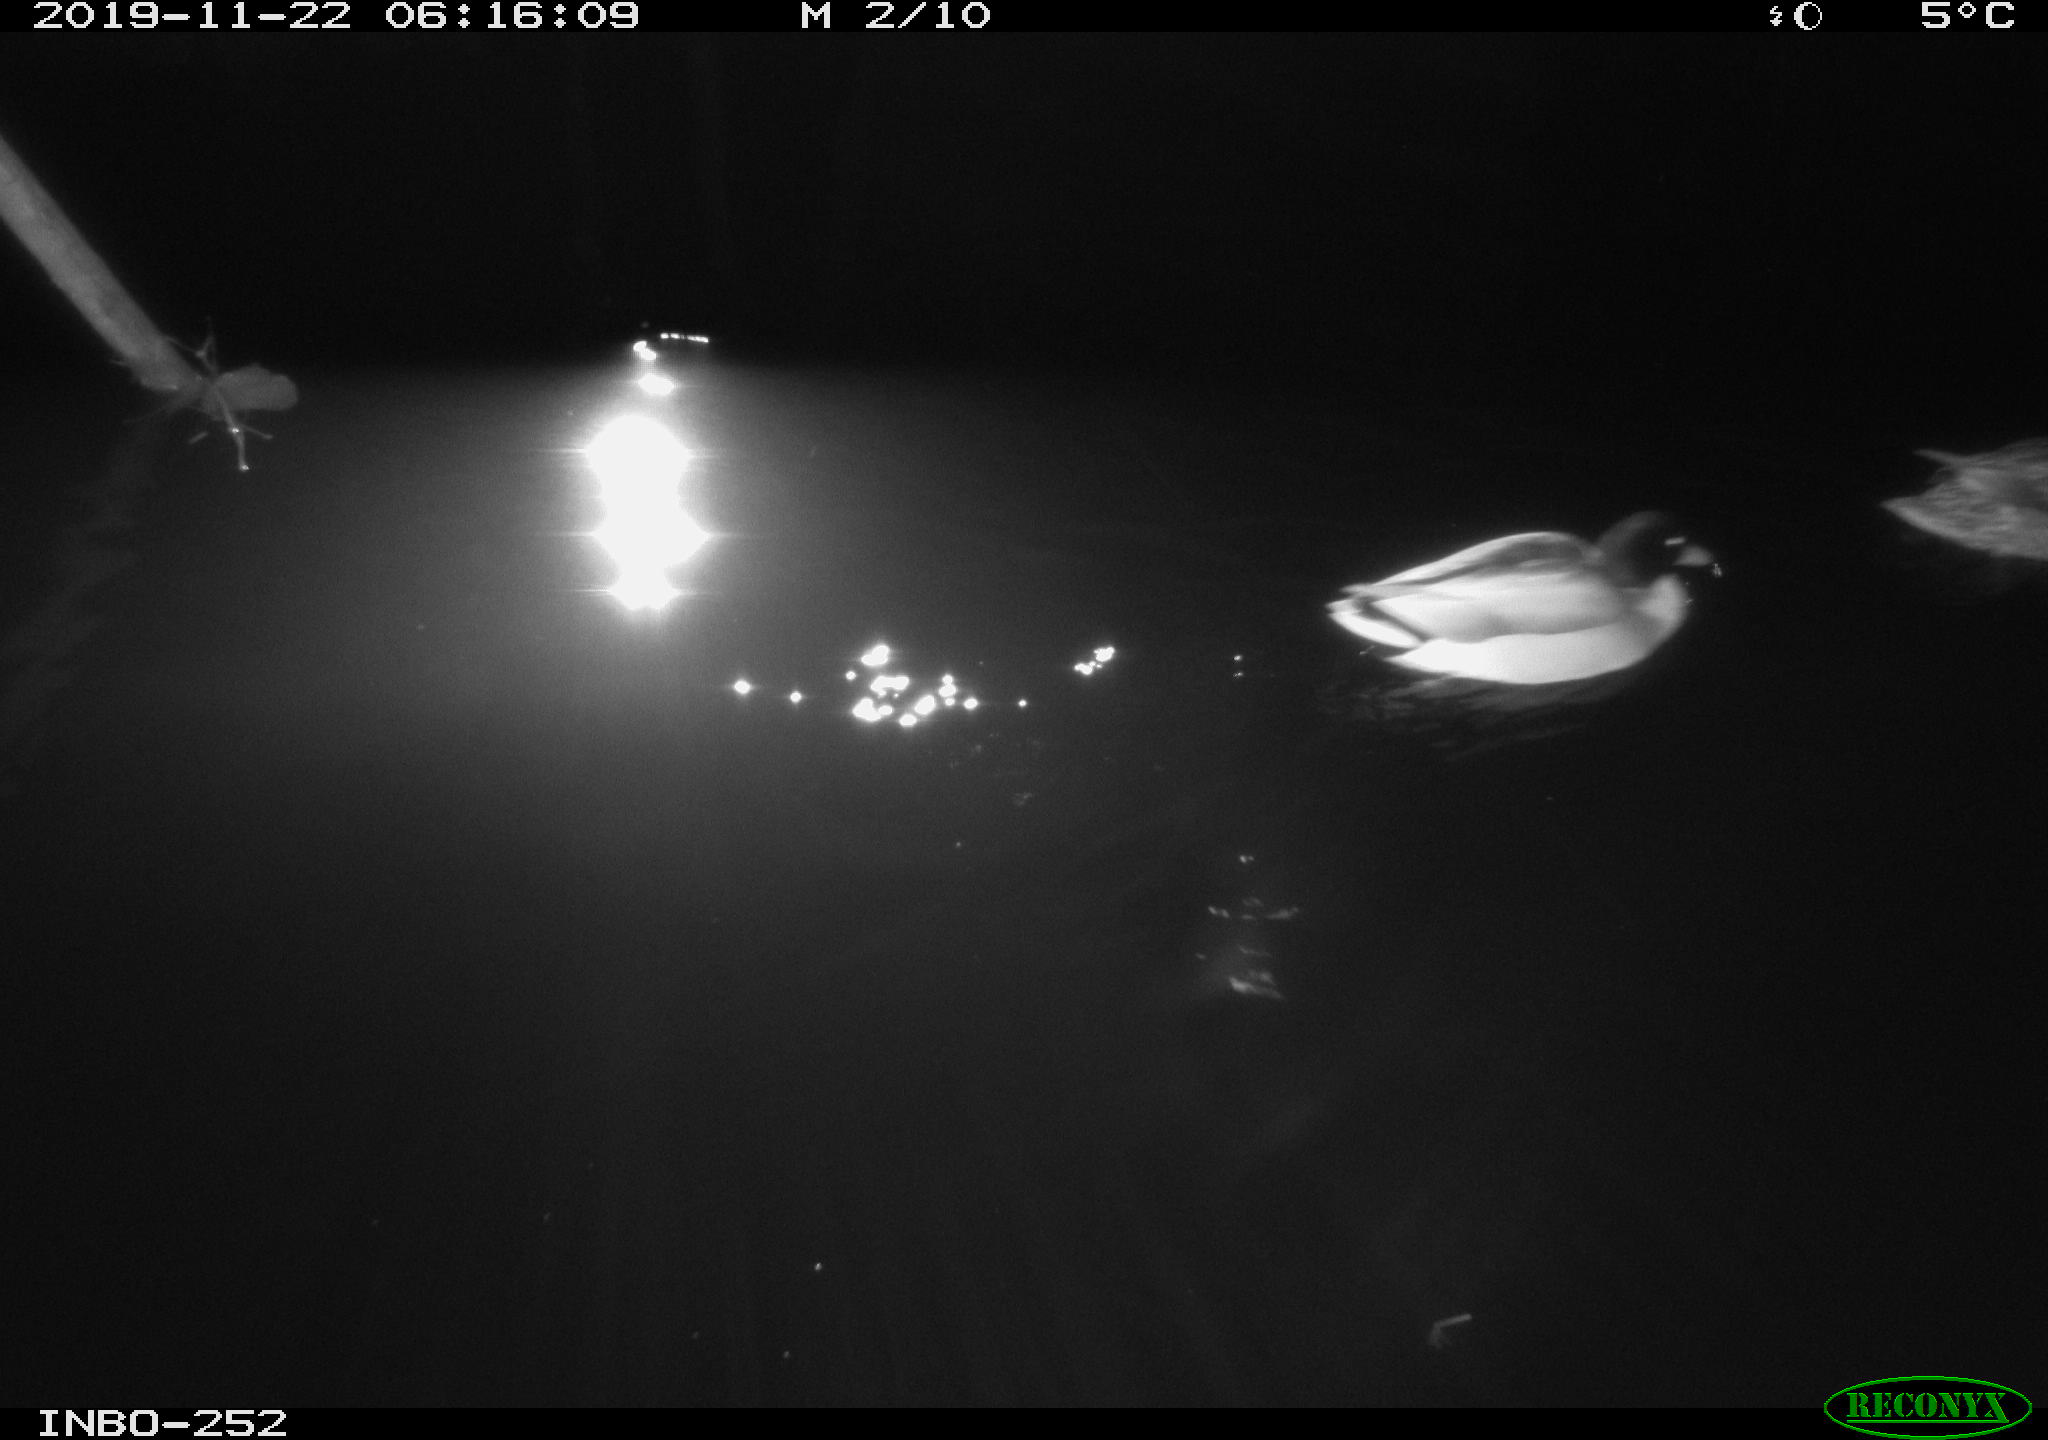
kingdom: Animalia
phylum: Chordata
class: Aves
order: Anseriformes
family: Anatidae
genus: Anas
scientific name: Anas platyrhynchos
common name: Mallard
